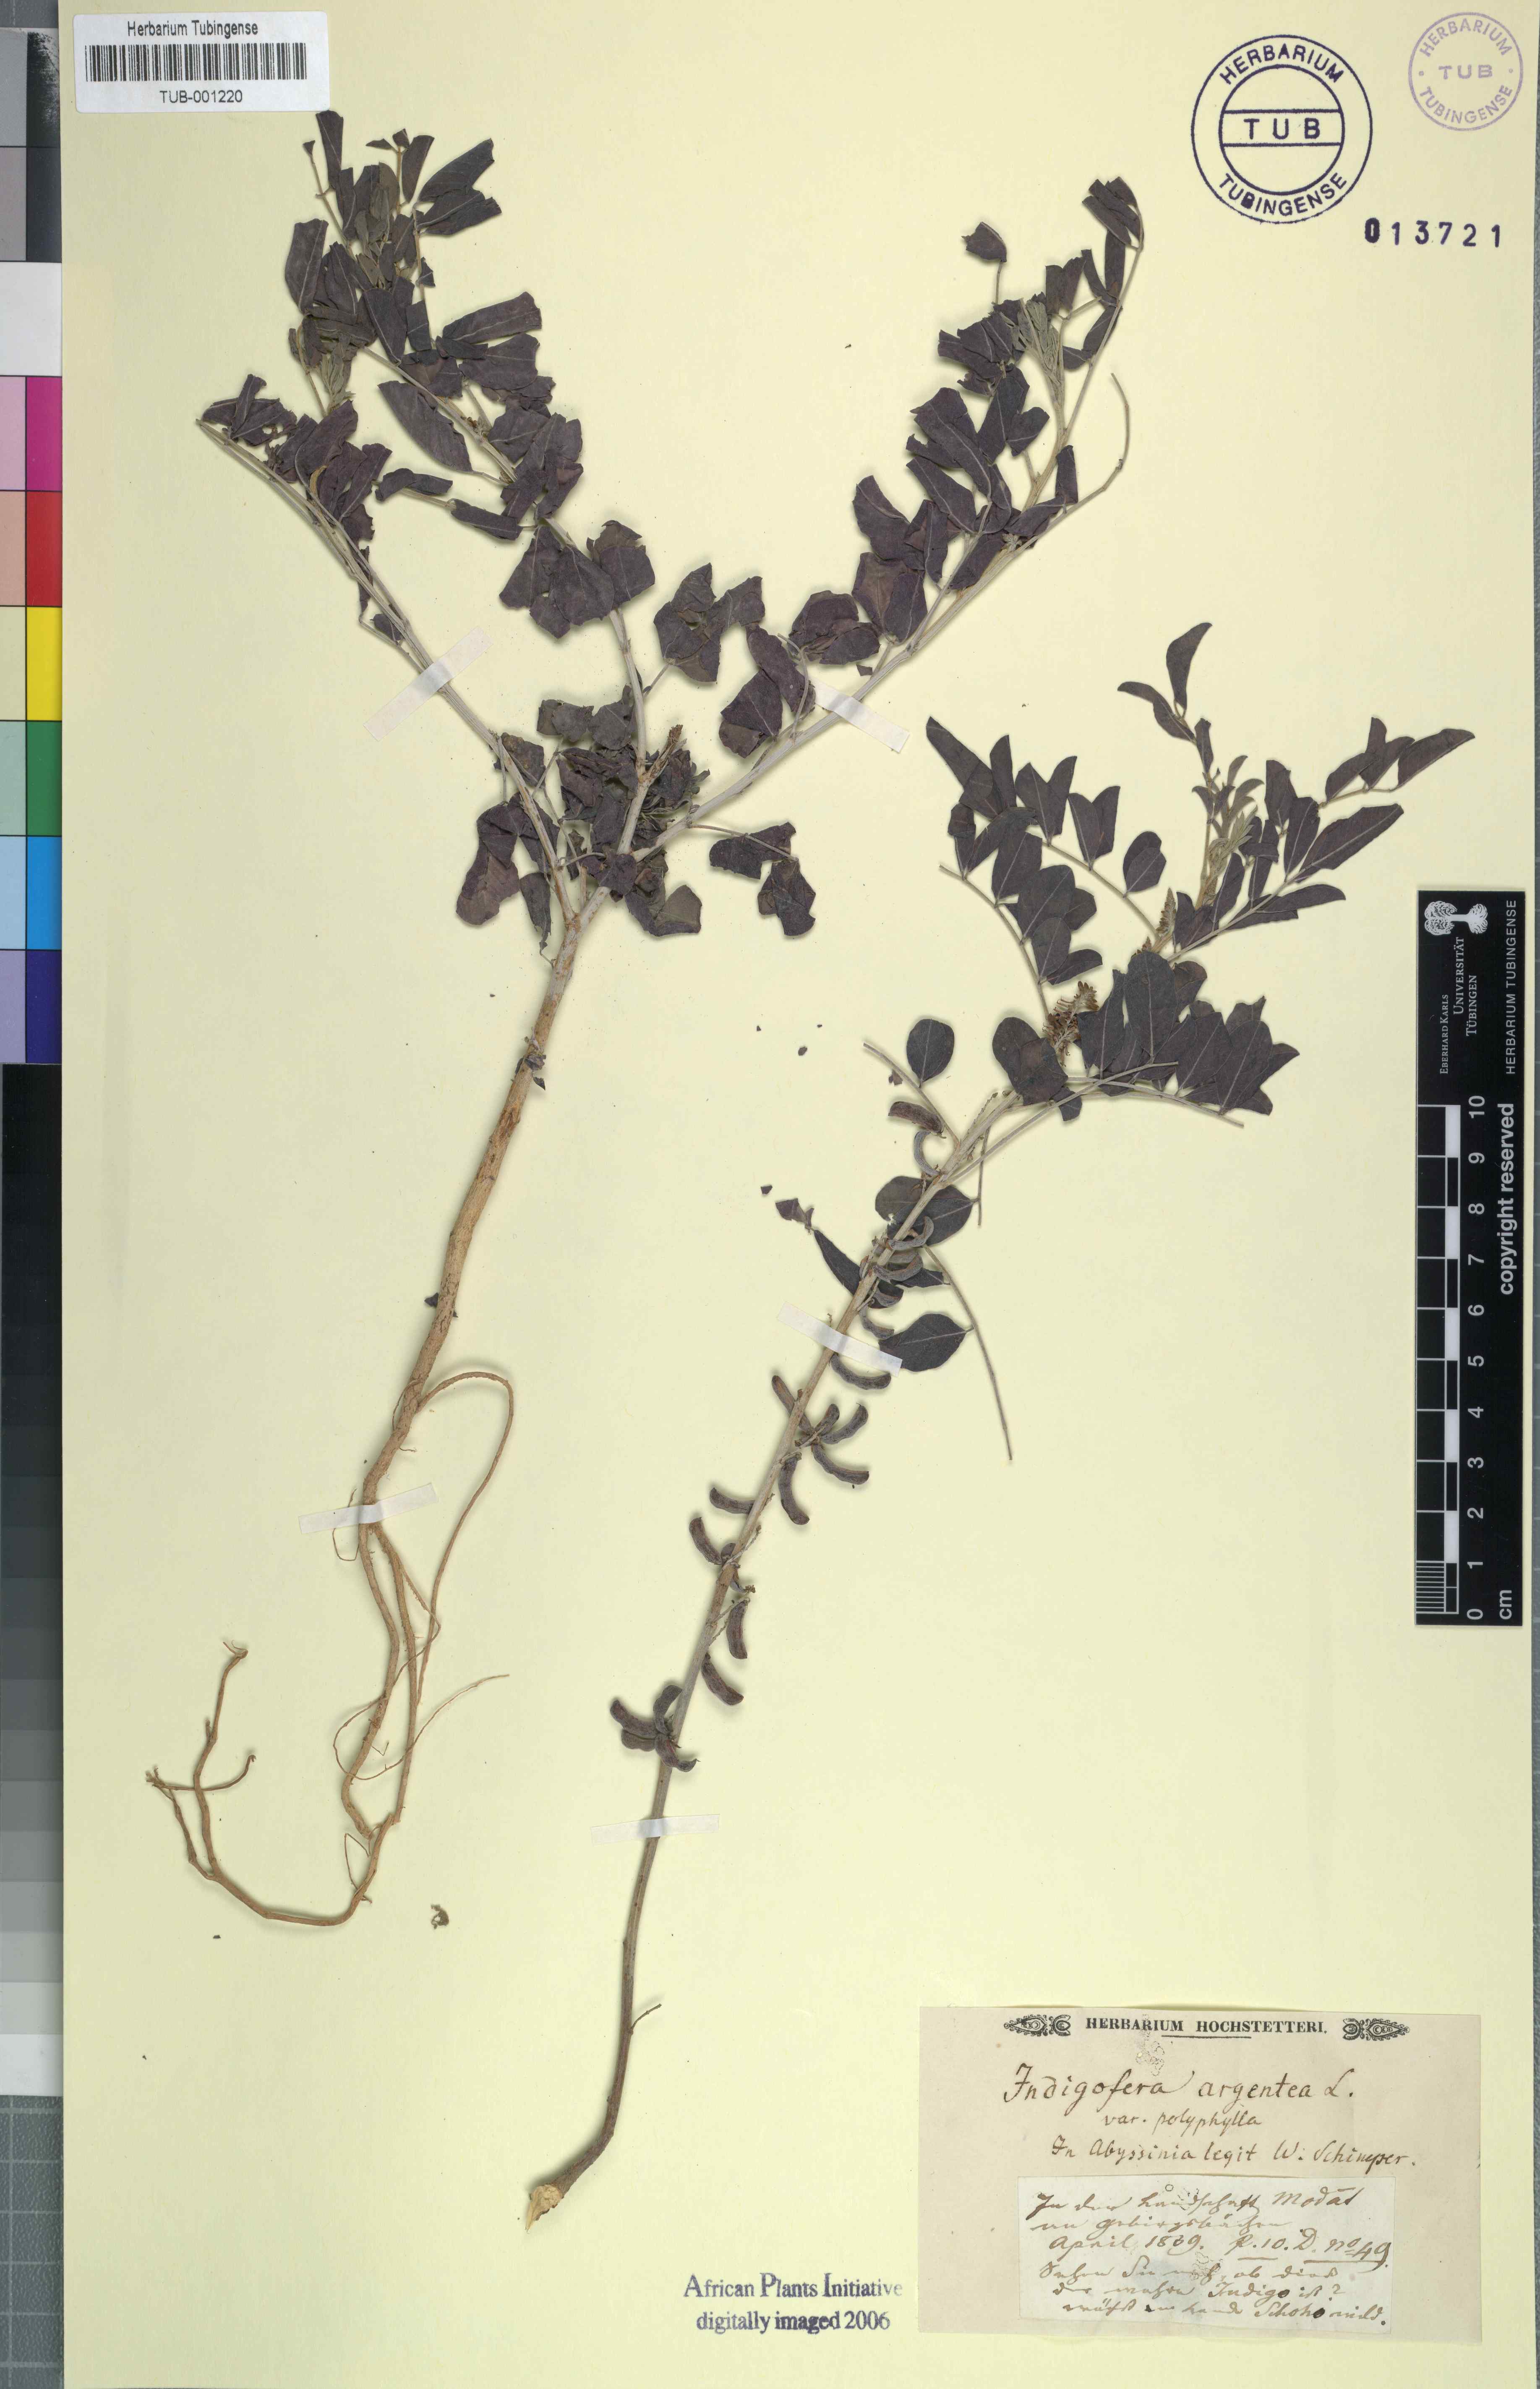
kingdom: Plantae
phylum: Tracheophyta
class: Magnoliopsida
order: Fabales
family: Fabaceae
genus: Indigofera
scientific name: Indigofera argentea
